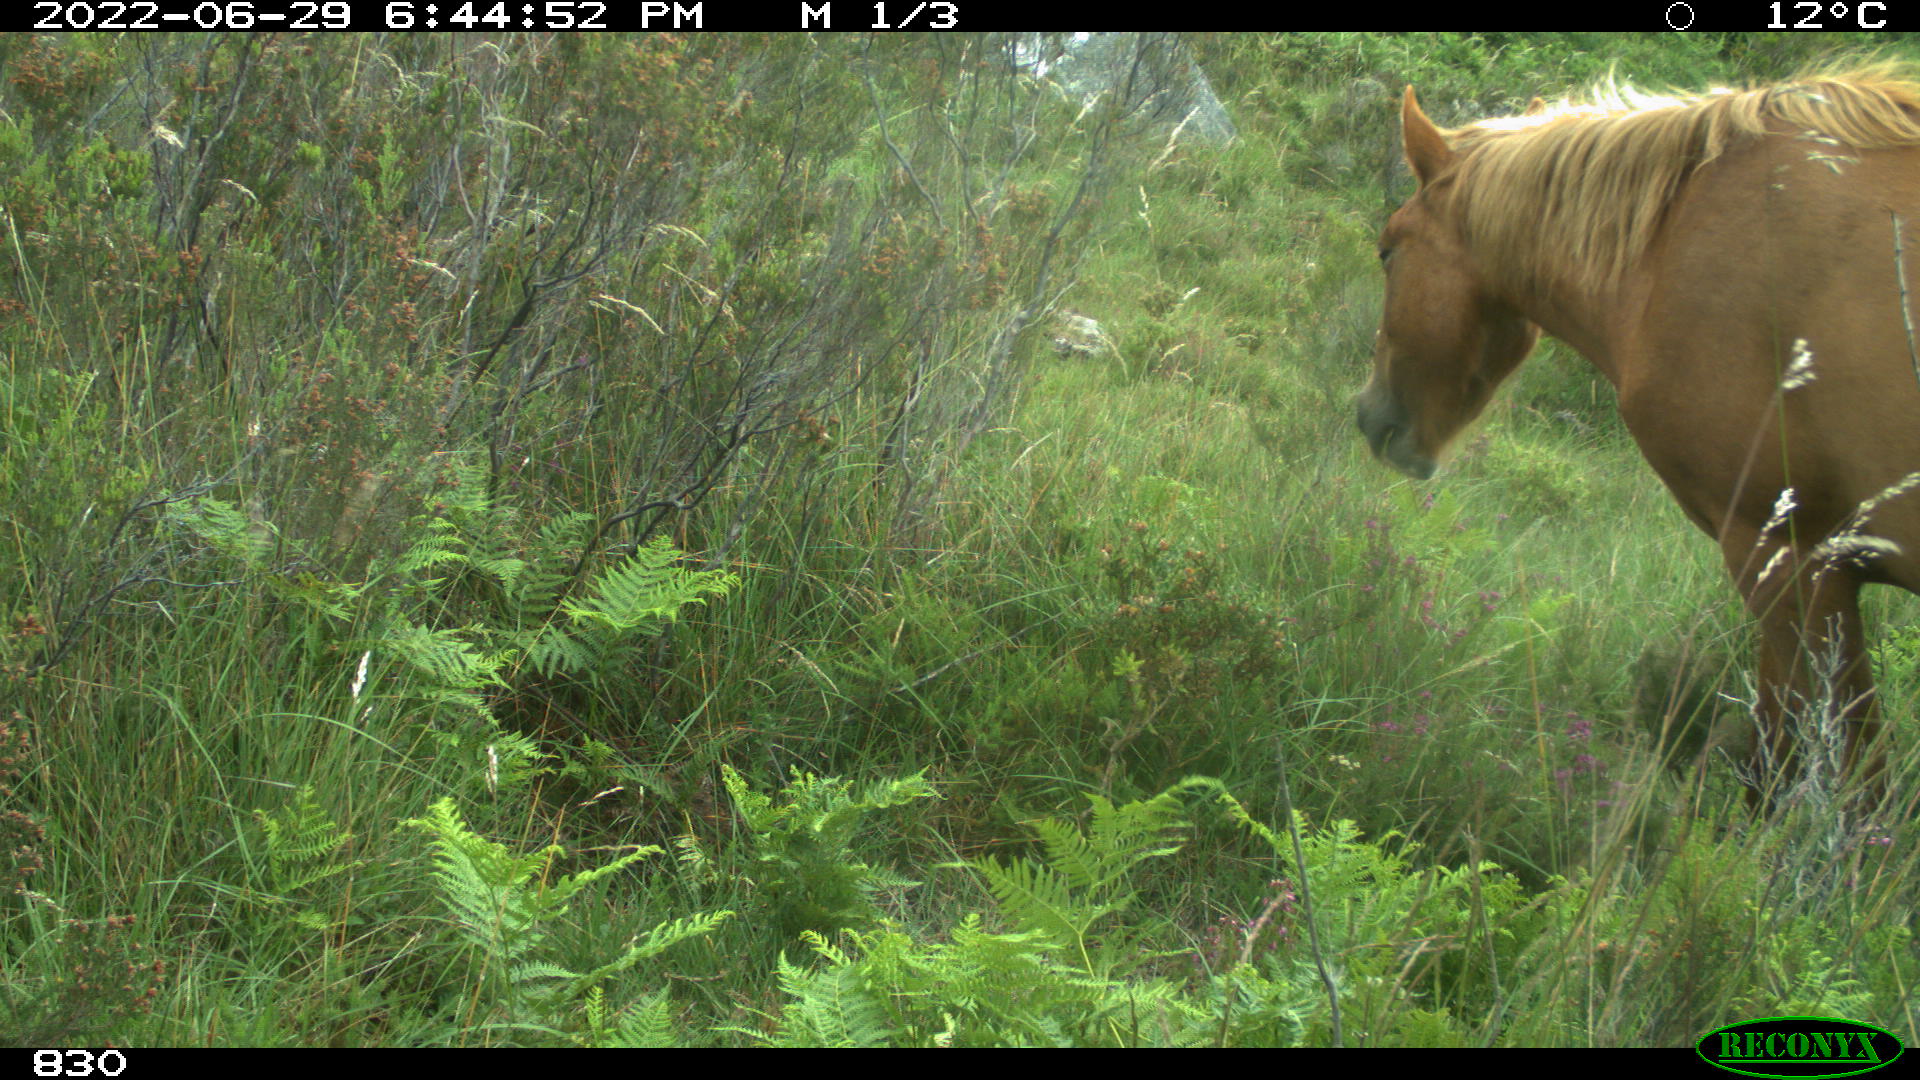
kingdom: Animalia
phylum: Chordata
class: Mammalia
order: Perissodactyla
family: Equidae
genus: Equus
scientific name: Equus caballus
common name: Horse
